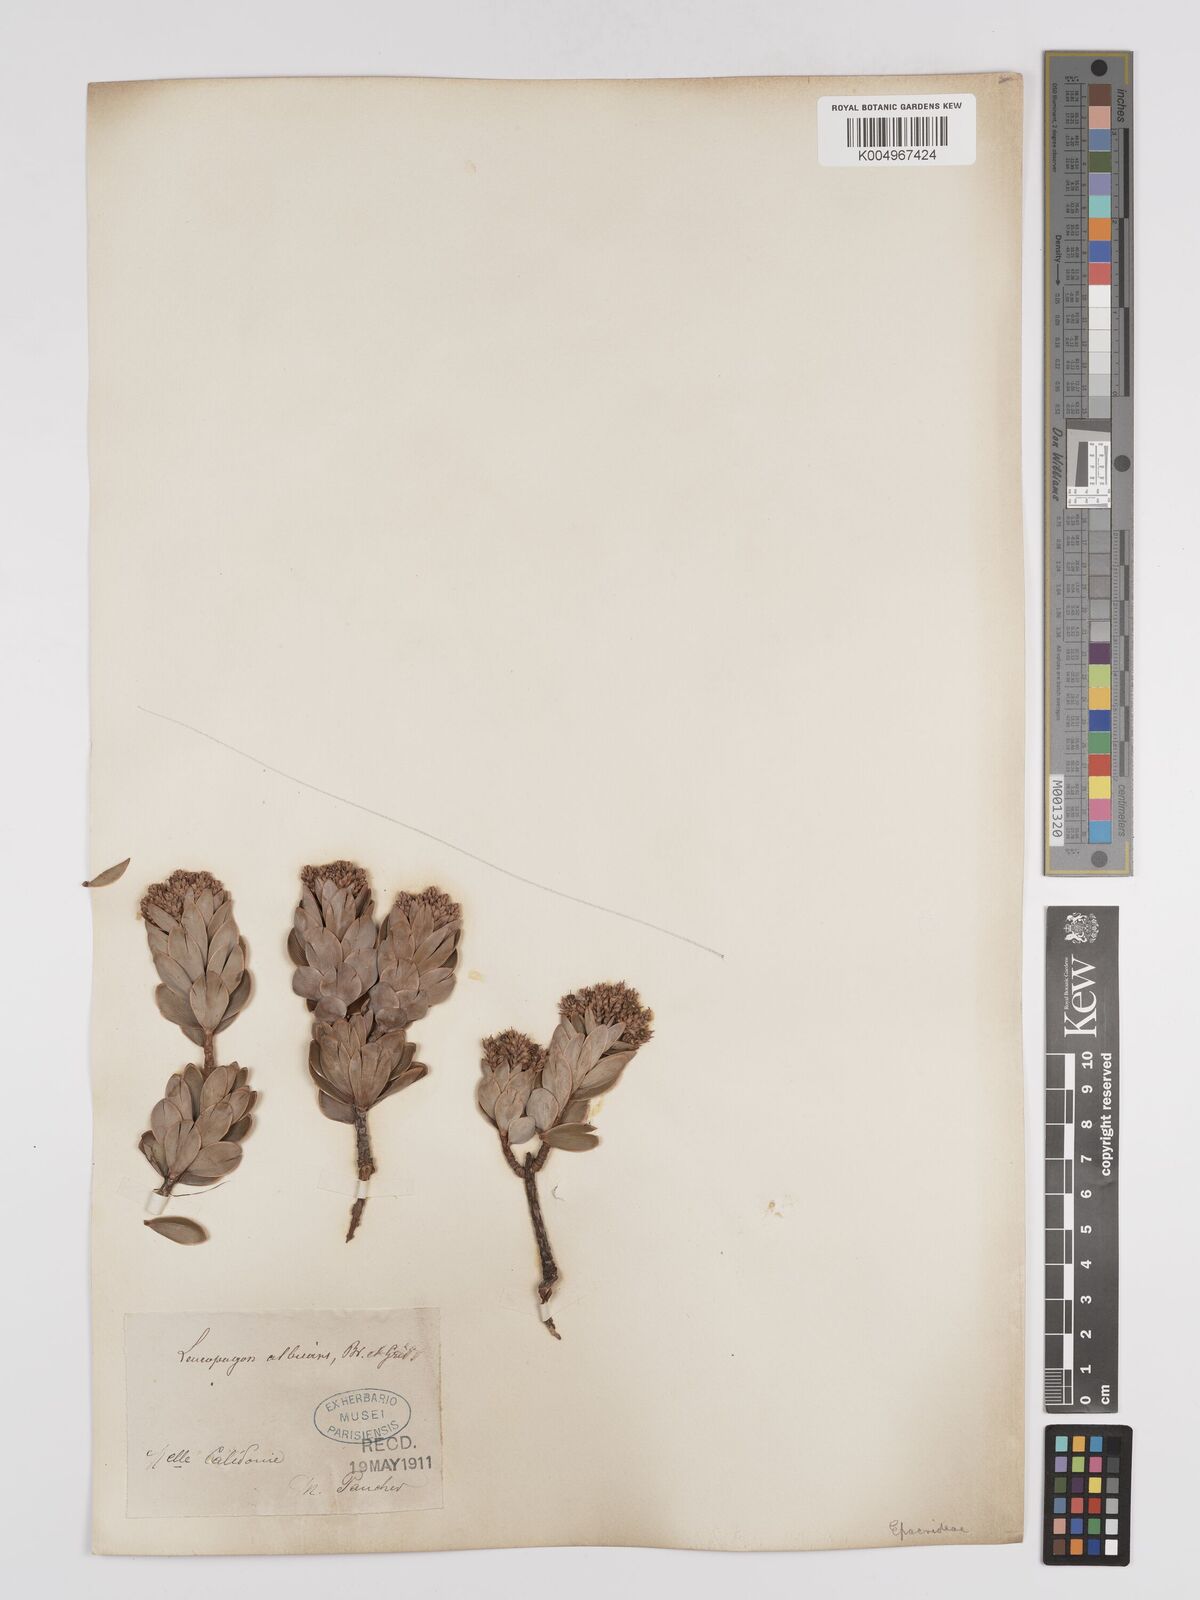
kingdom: Plantae
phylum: Tracheophyta
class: Magnoliopsida
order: Ericales
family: Ericaceae
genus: Cyathopsis
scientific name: Cyathopsis albicans
